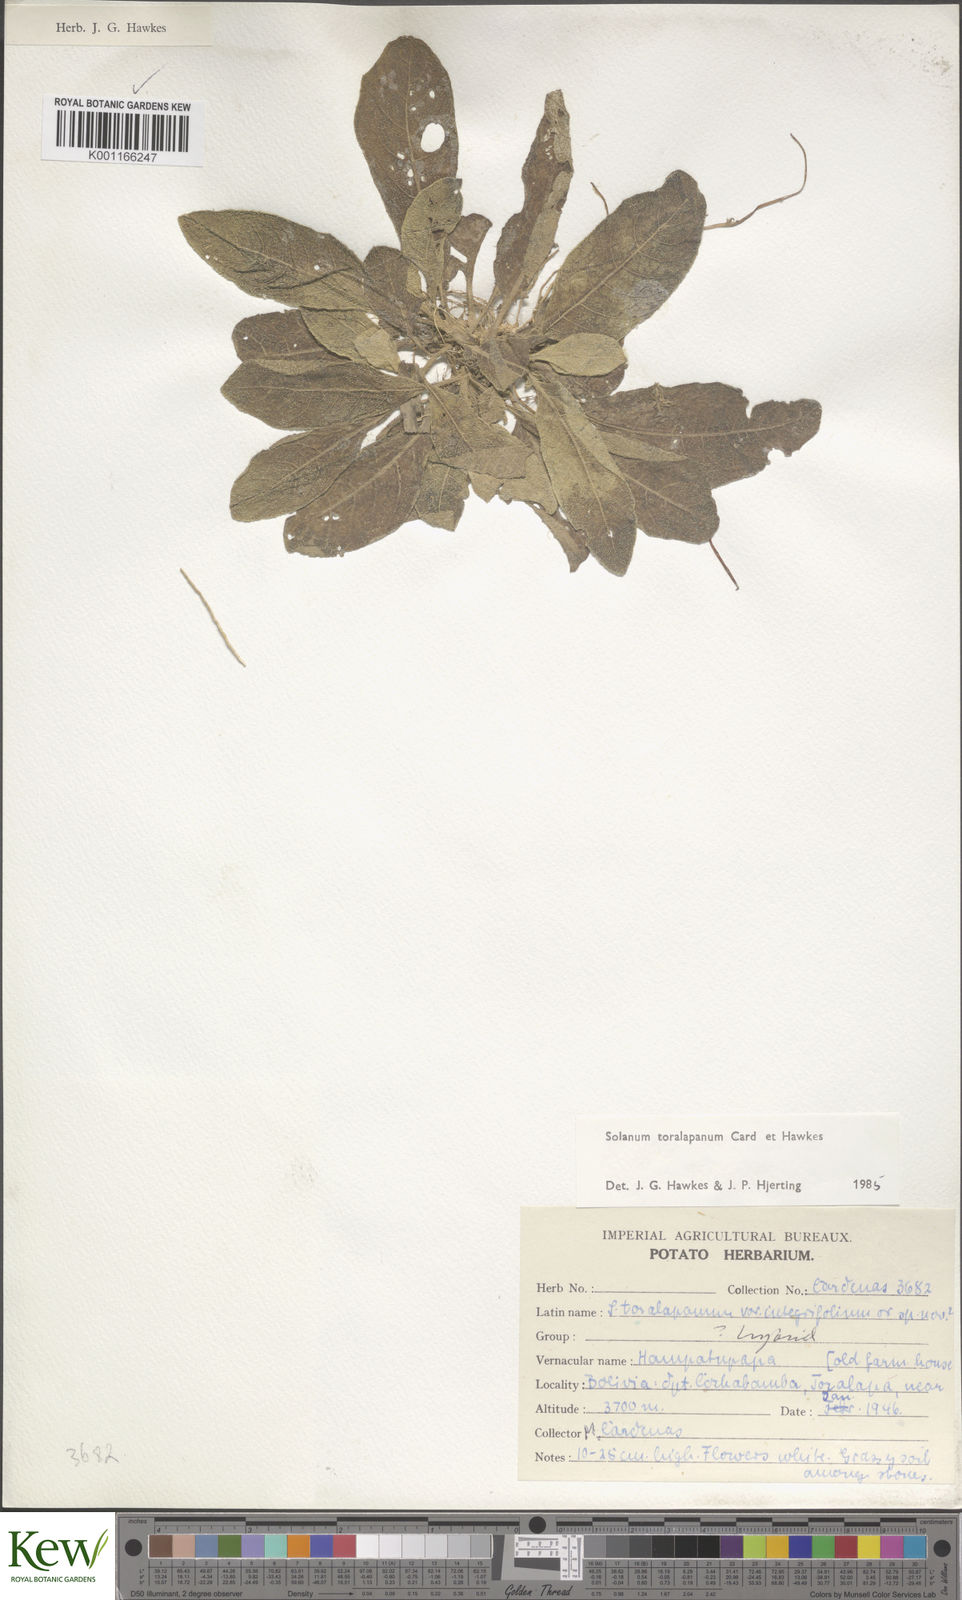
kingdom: Plantae
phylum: Tracheophyta
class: Magnoliopsida
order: Solanales
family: Solanaceae
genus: Solanum
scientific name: Solanum
